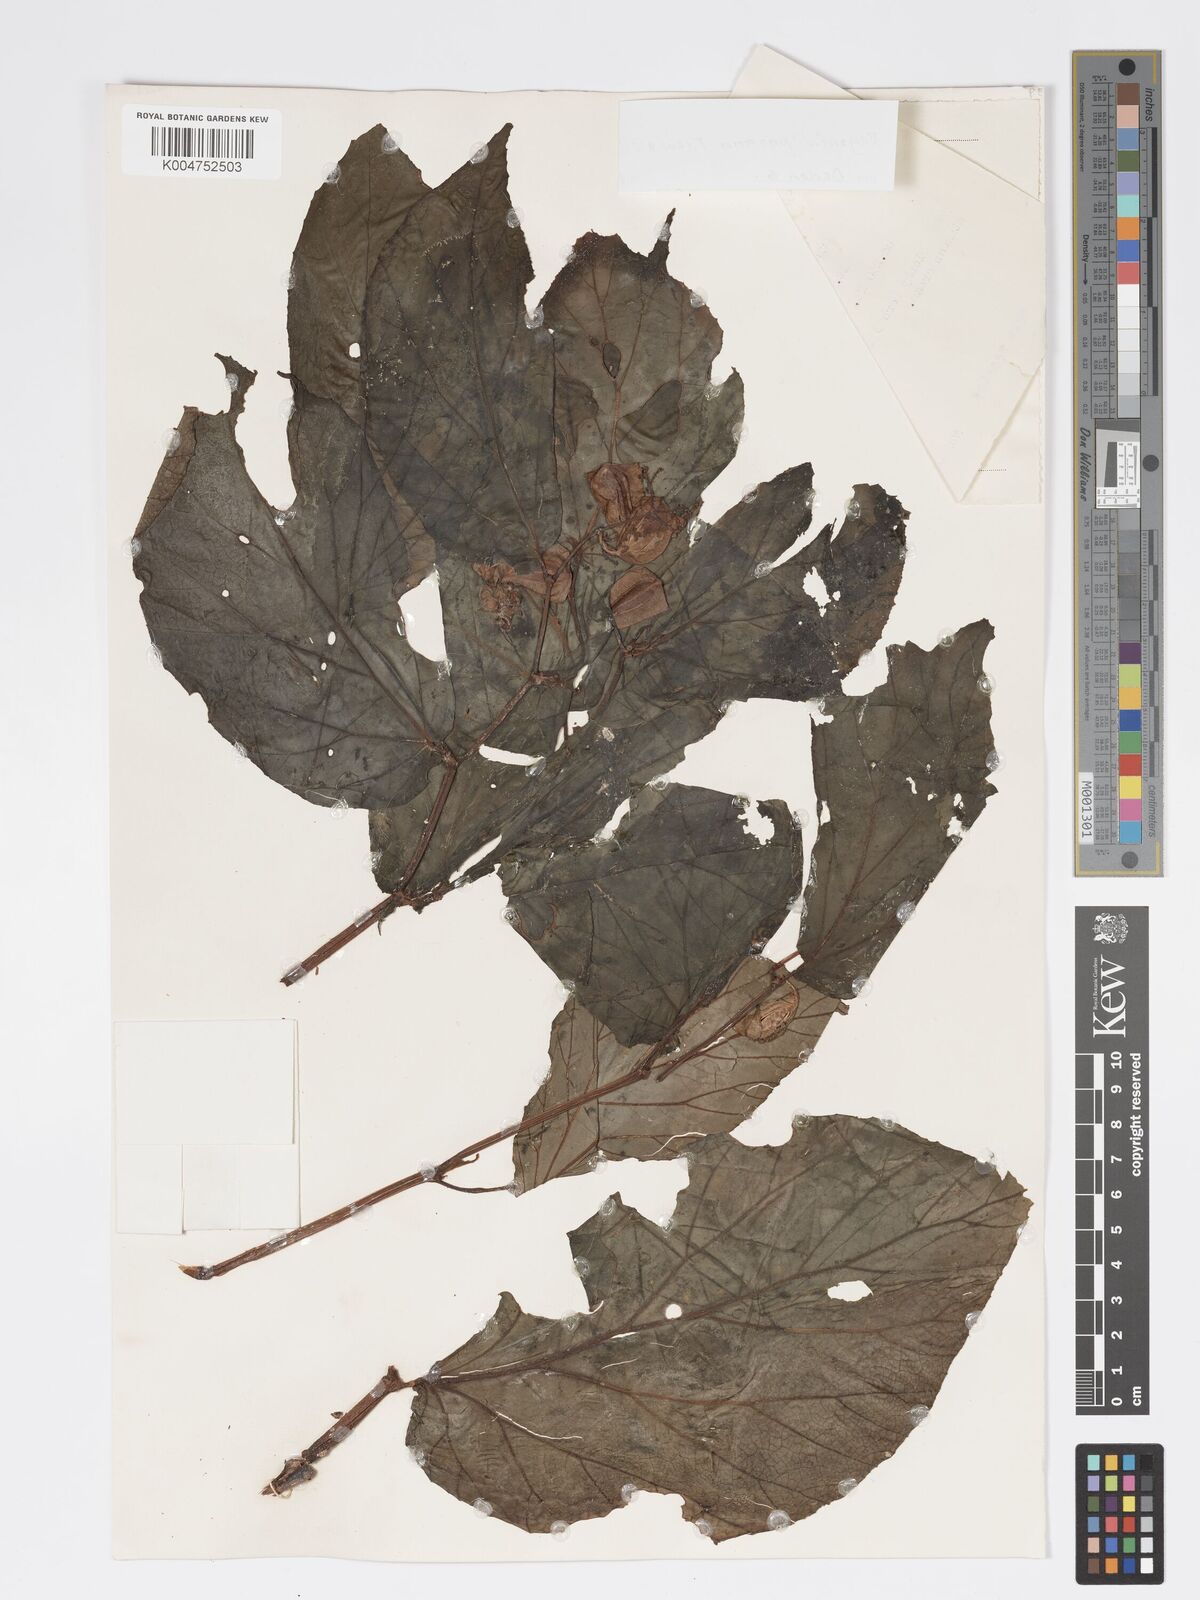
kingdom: Plantae
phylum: Tracheophyta
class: Magnoliopsida
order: Cucurbitales
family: Begoniaceae
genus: Begonia
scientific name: Begonia paoana
